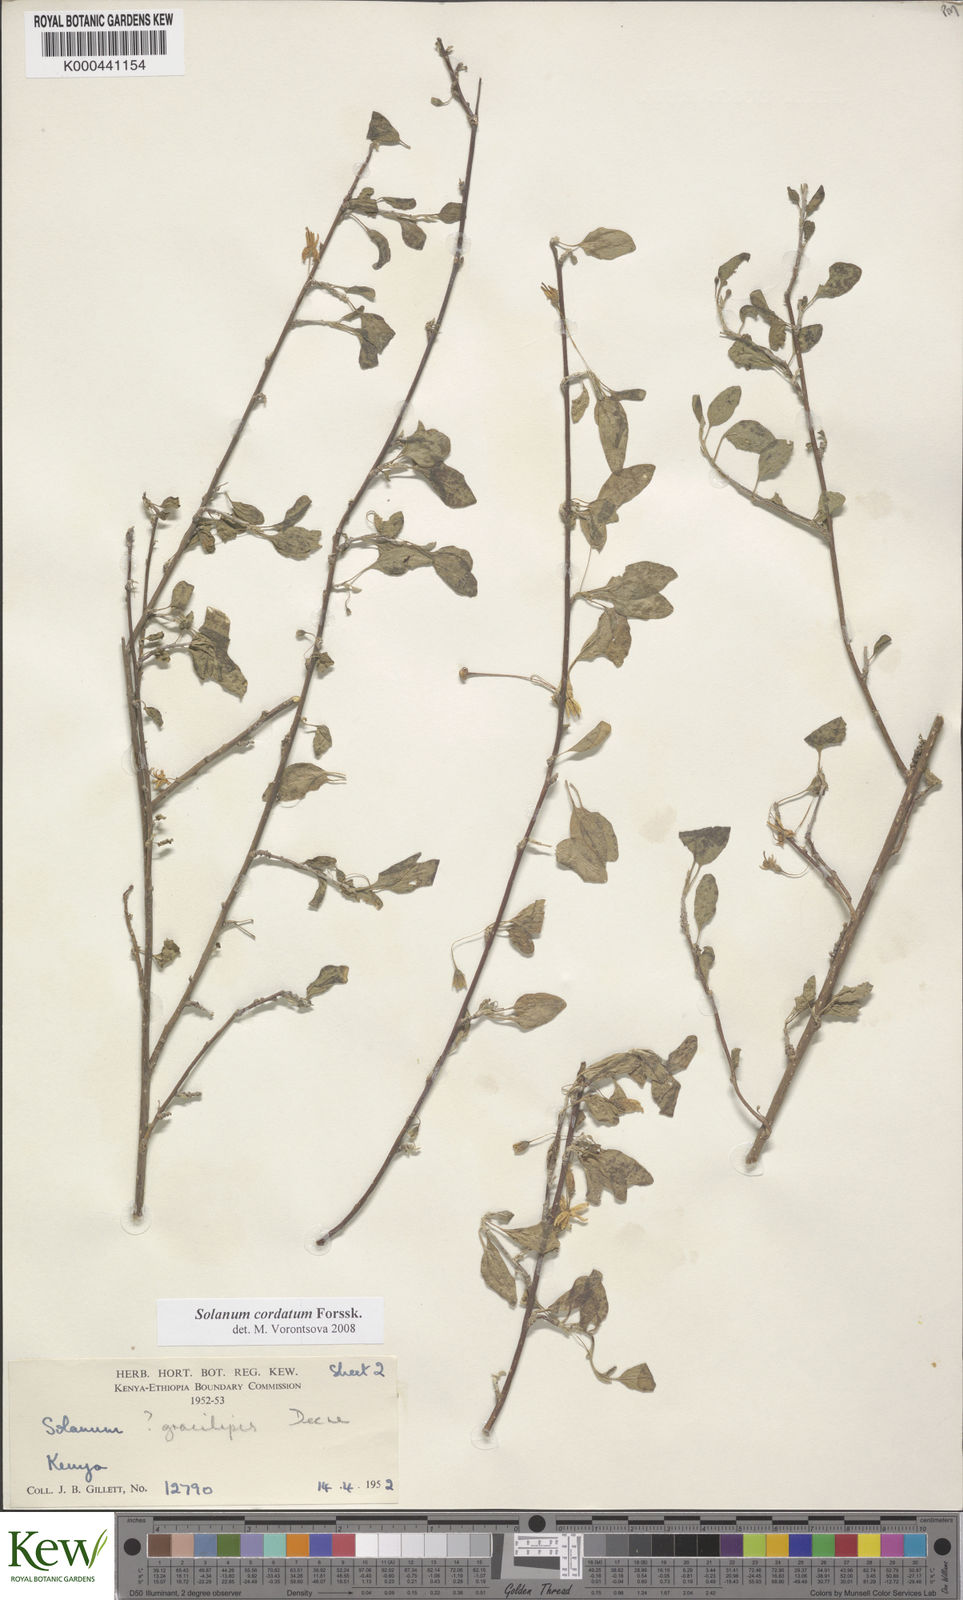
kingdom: Plantae
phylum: Tracheophyta
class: Magnoliopsida
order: Solanales
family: Solanaceae
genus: Solanum
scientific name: Solanum cordatum
